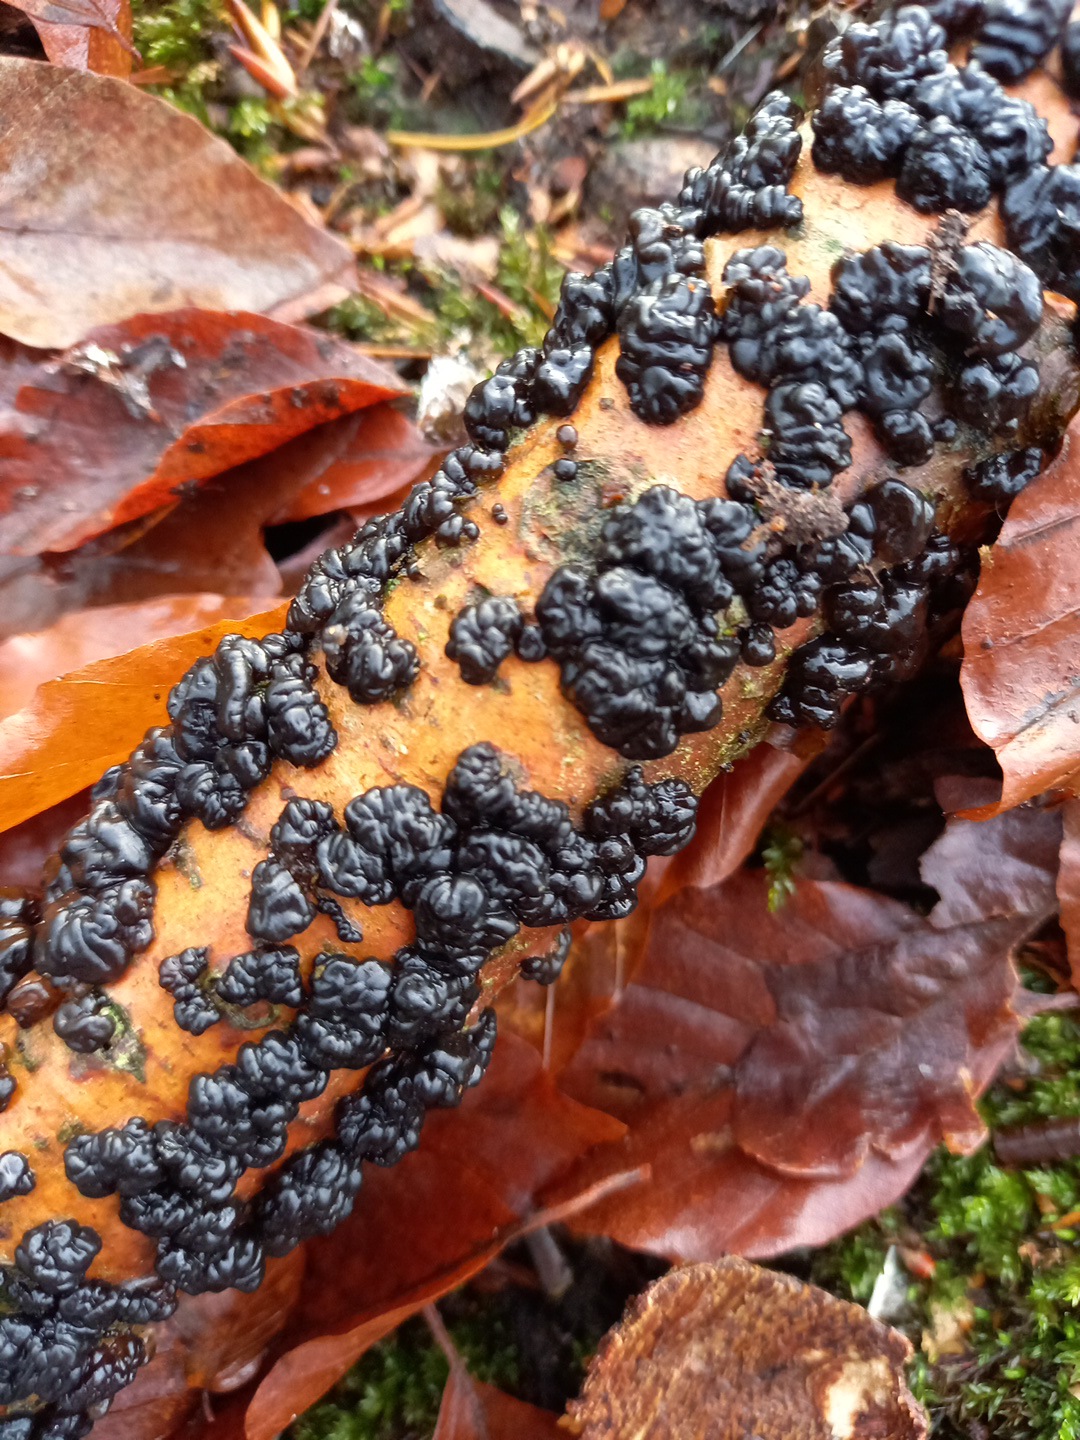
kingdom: Fungi
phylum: Basidiomycota
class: Agaricomycetes
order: Auriculariales
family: Auriculariaceae
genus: Exidia
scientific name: Exidia nigricans
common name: almindelig bævretop
